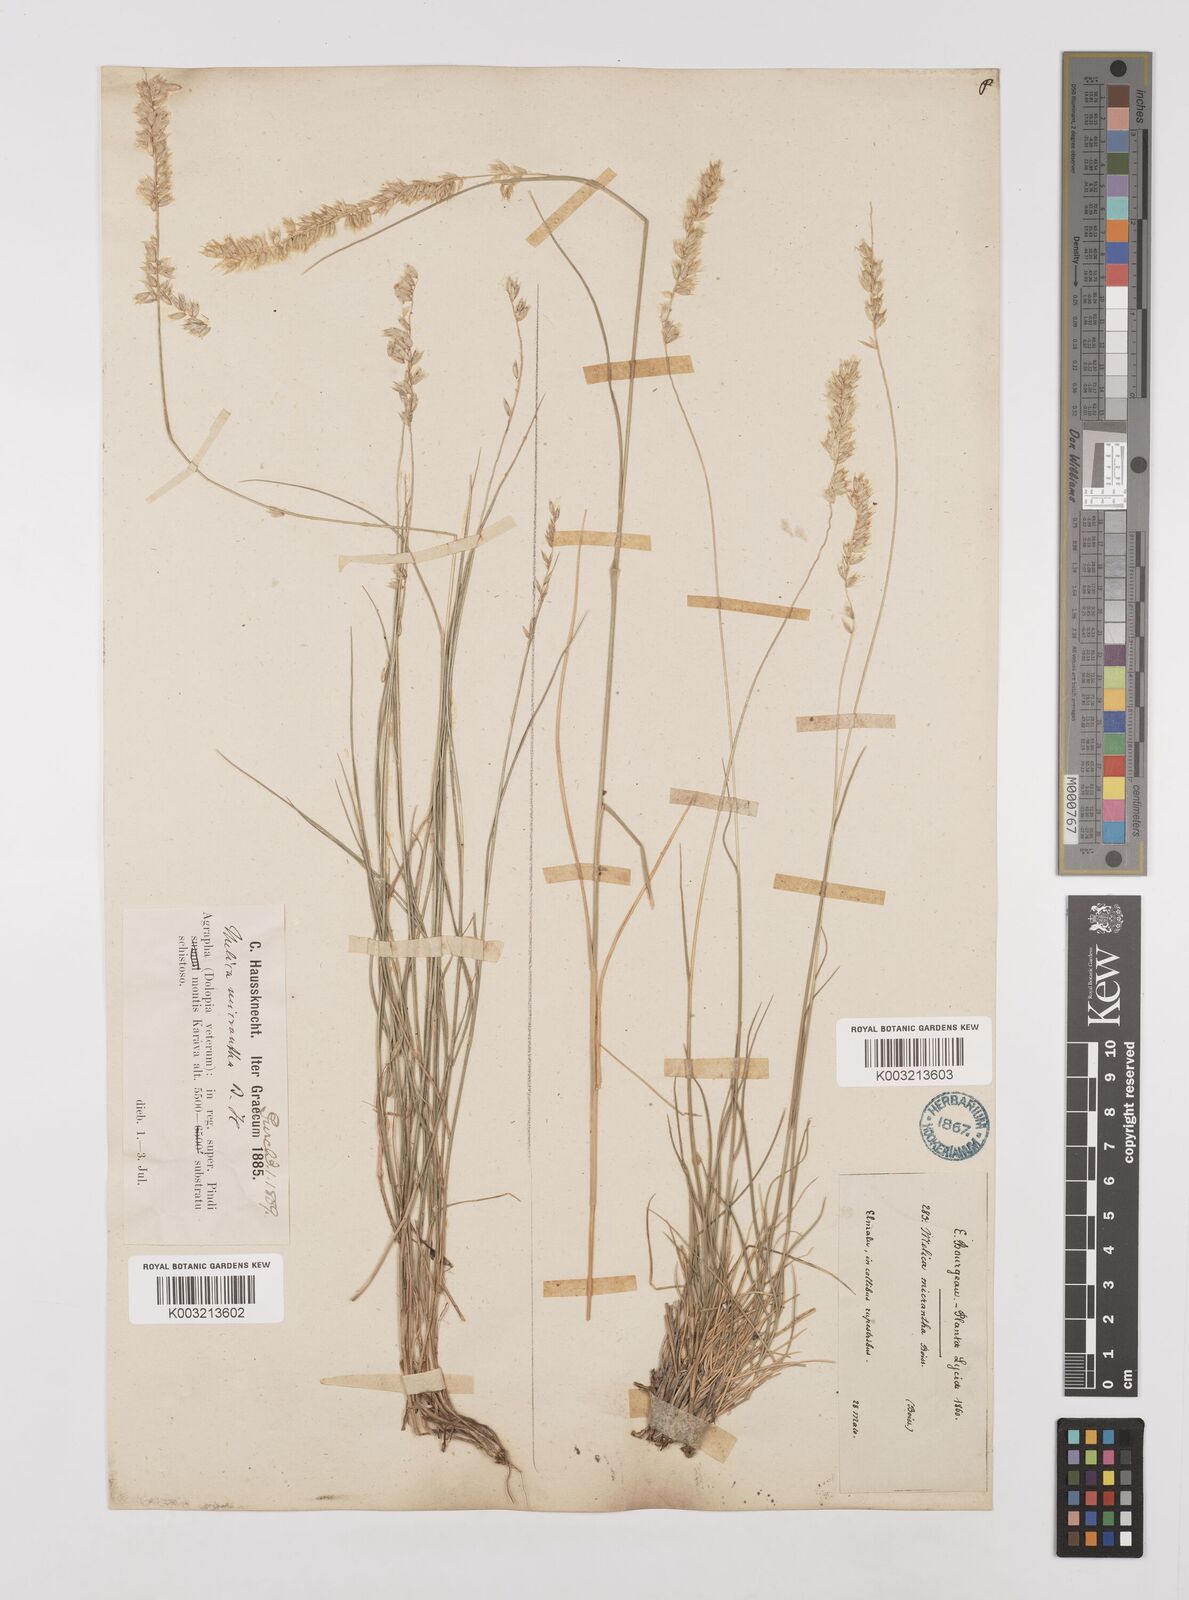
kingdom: Plantae
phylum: Tracheophyta
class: Liliopsida
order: Poales
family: Poaceae
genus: Melica
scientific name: Melica ciliata
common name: Hairy melicgrass
